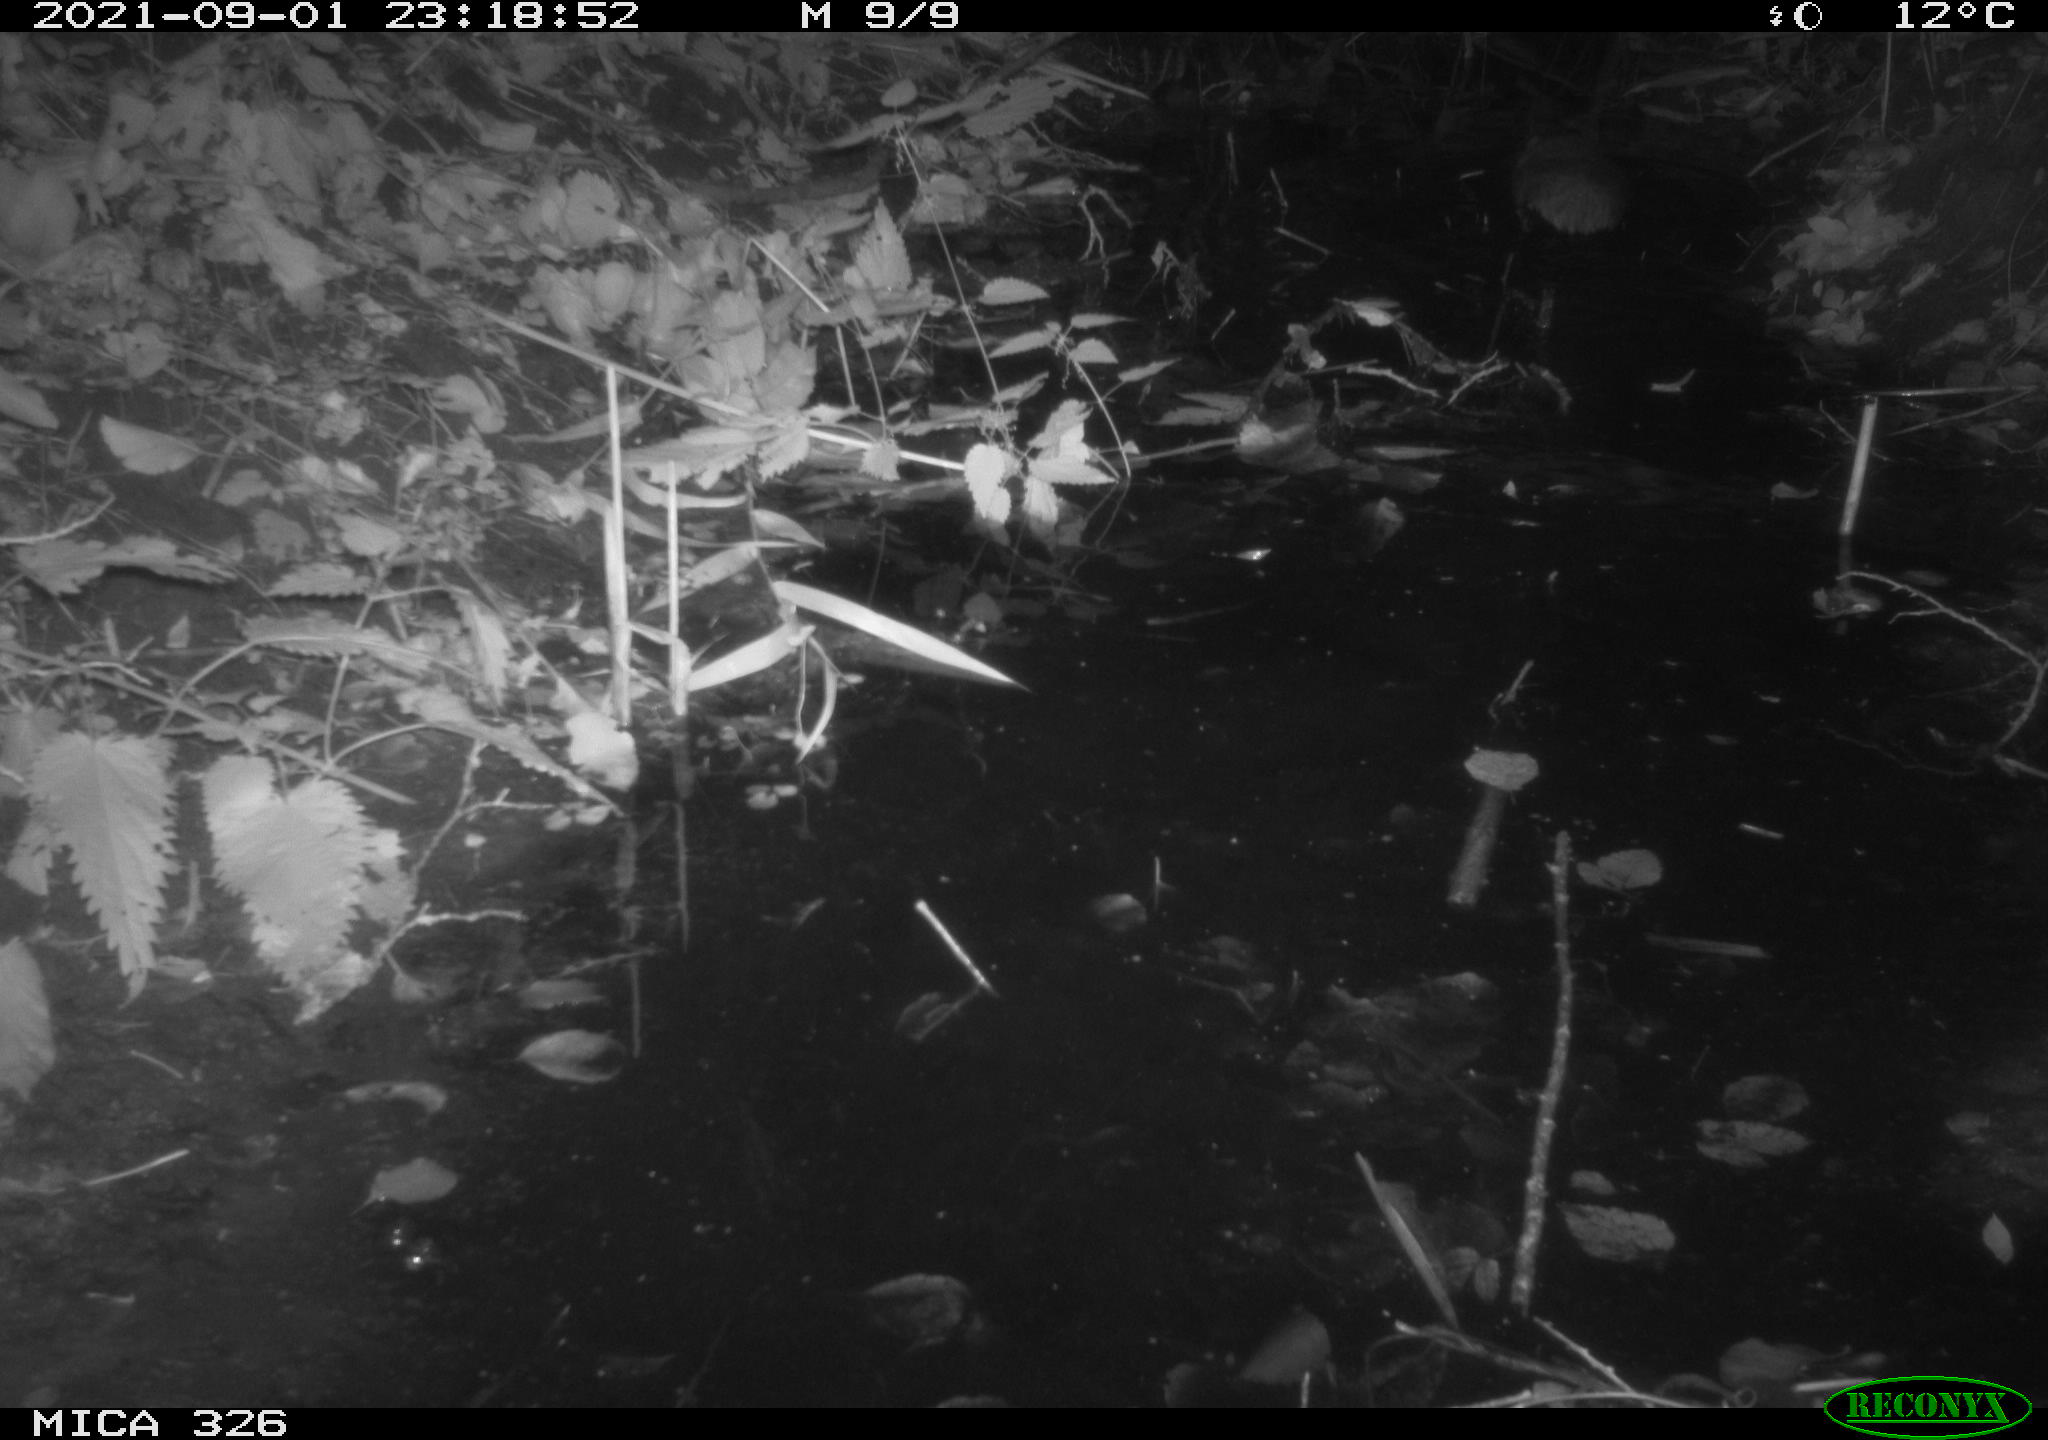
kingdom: Animalia
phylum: Chordata
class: Mammalia
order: Rodentia
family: Muridae
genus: Rattus
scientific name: Rattus norvegicus
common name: Brown rat
